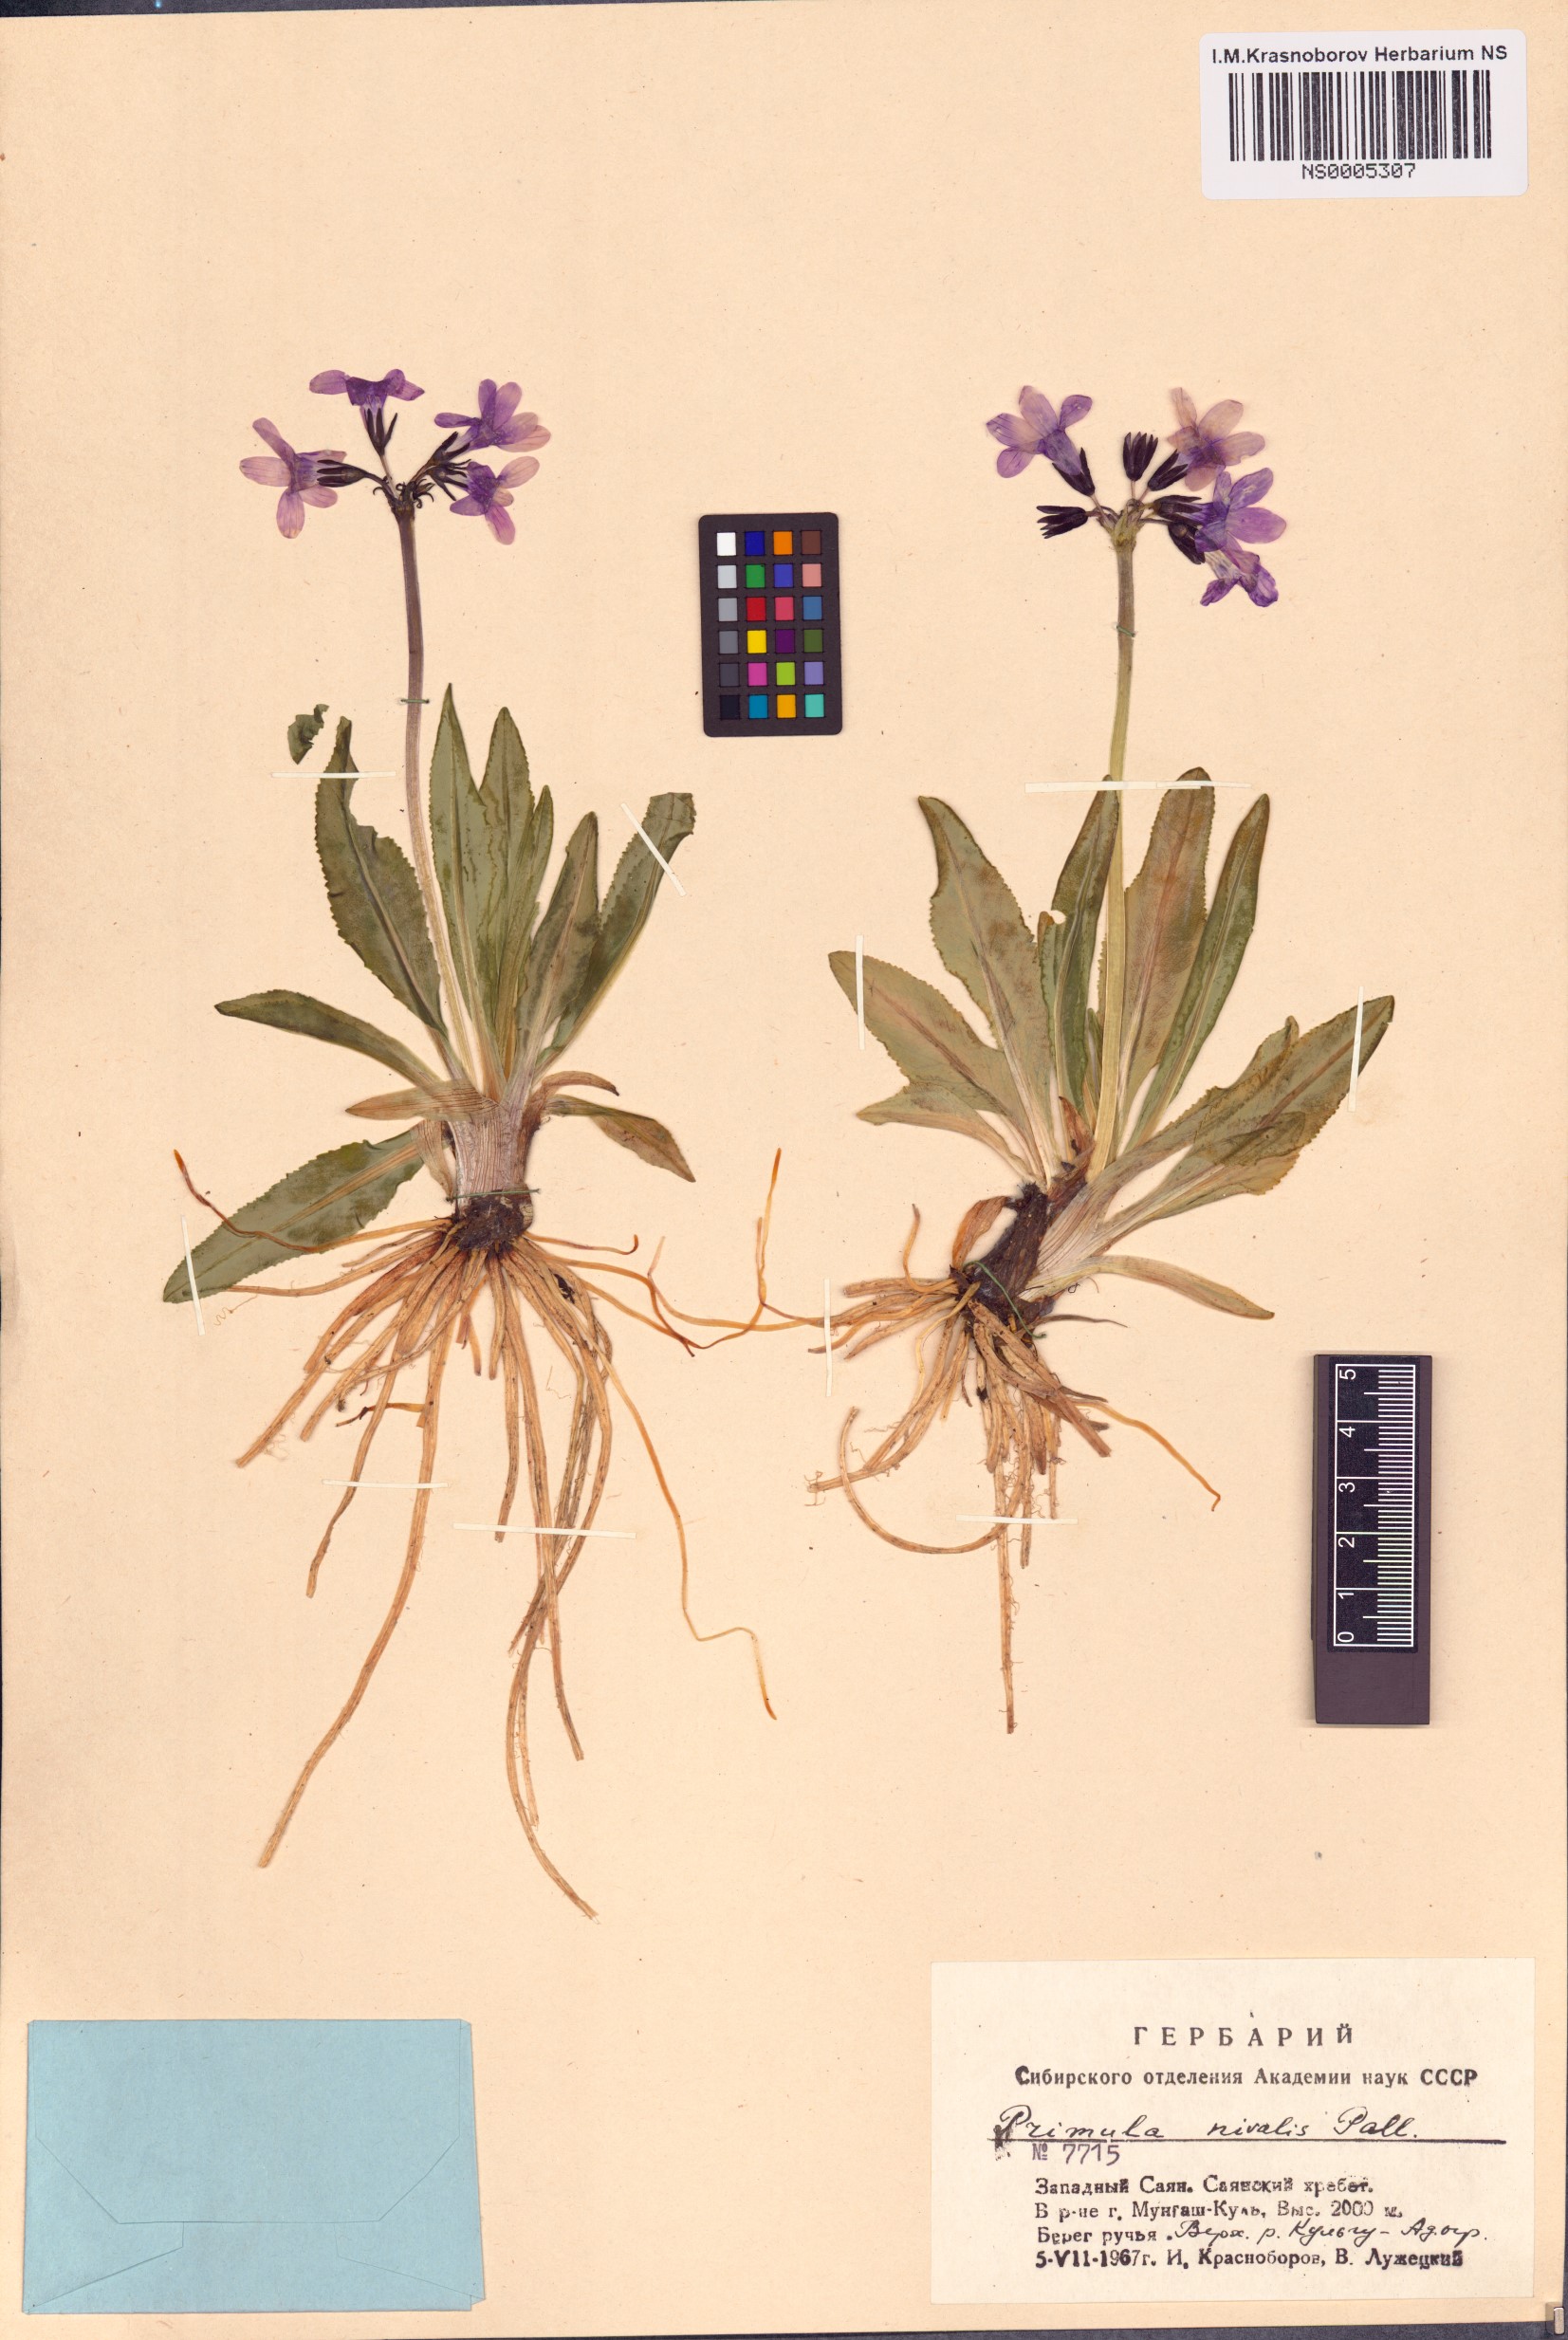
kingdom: Plantae
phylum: Tracheophyta
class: Magnoliopsida
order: Ericales
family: Primulaceae
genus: Primula
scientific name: Primula nivalis
